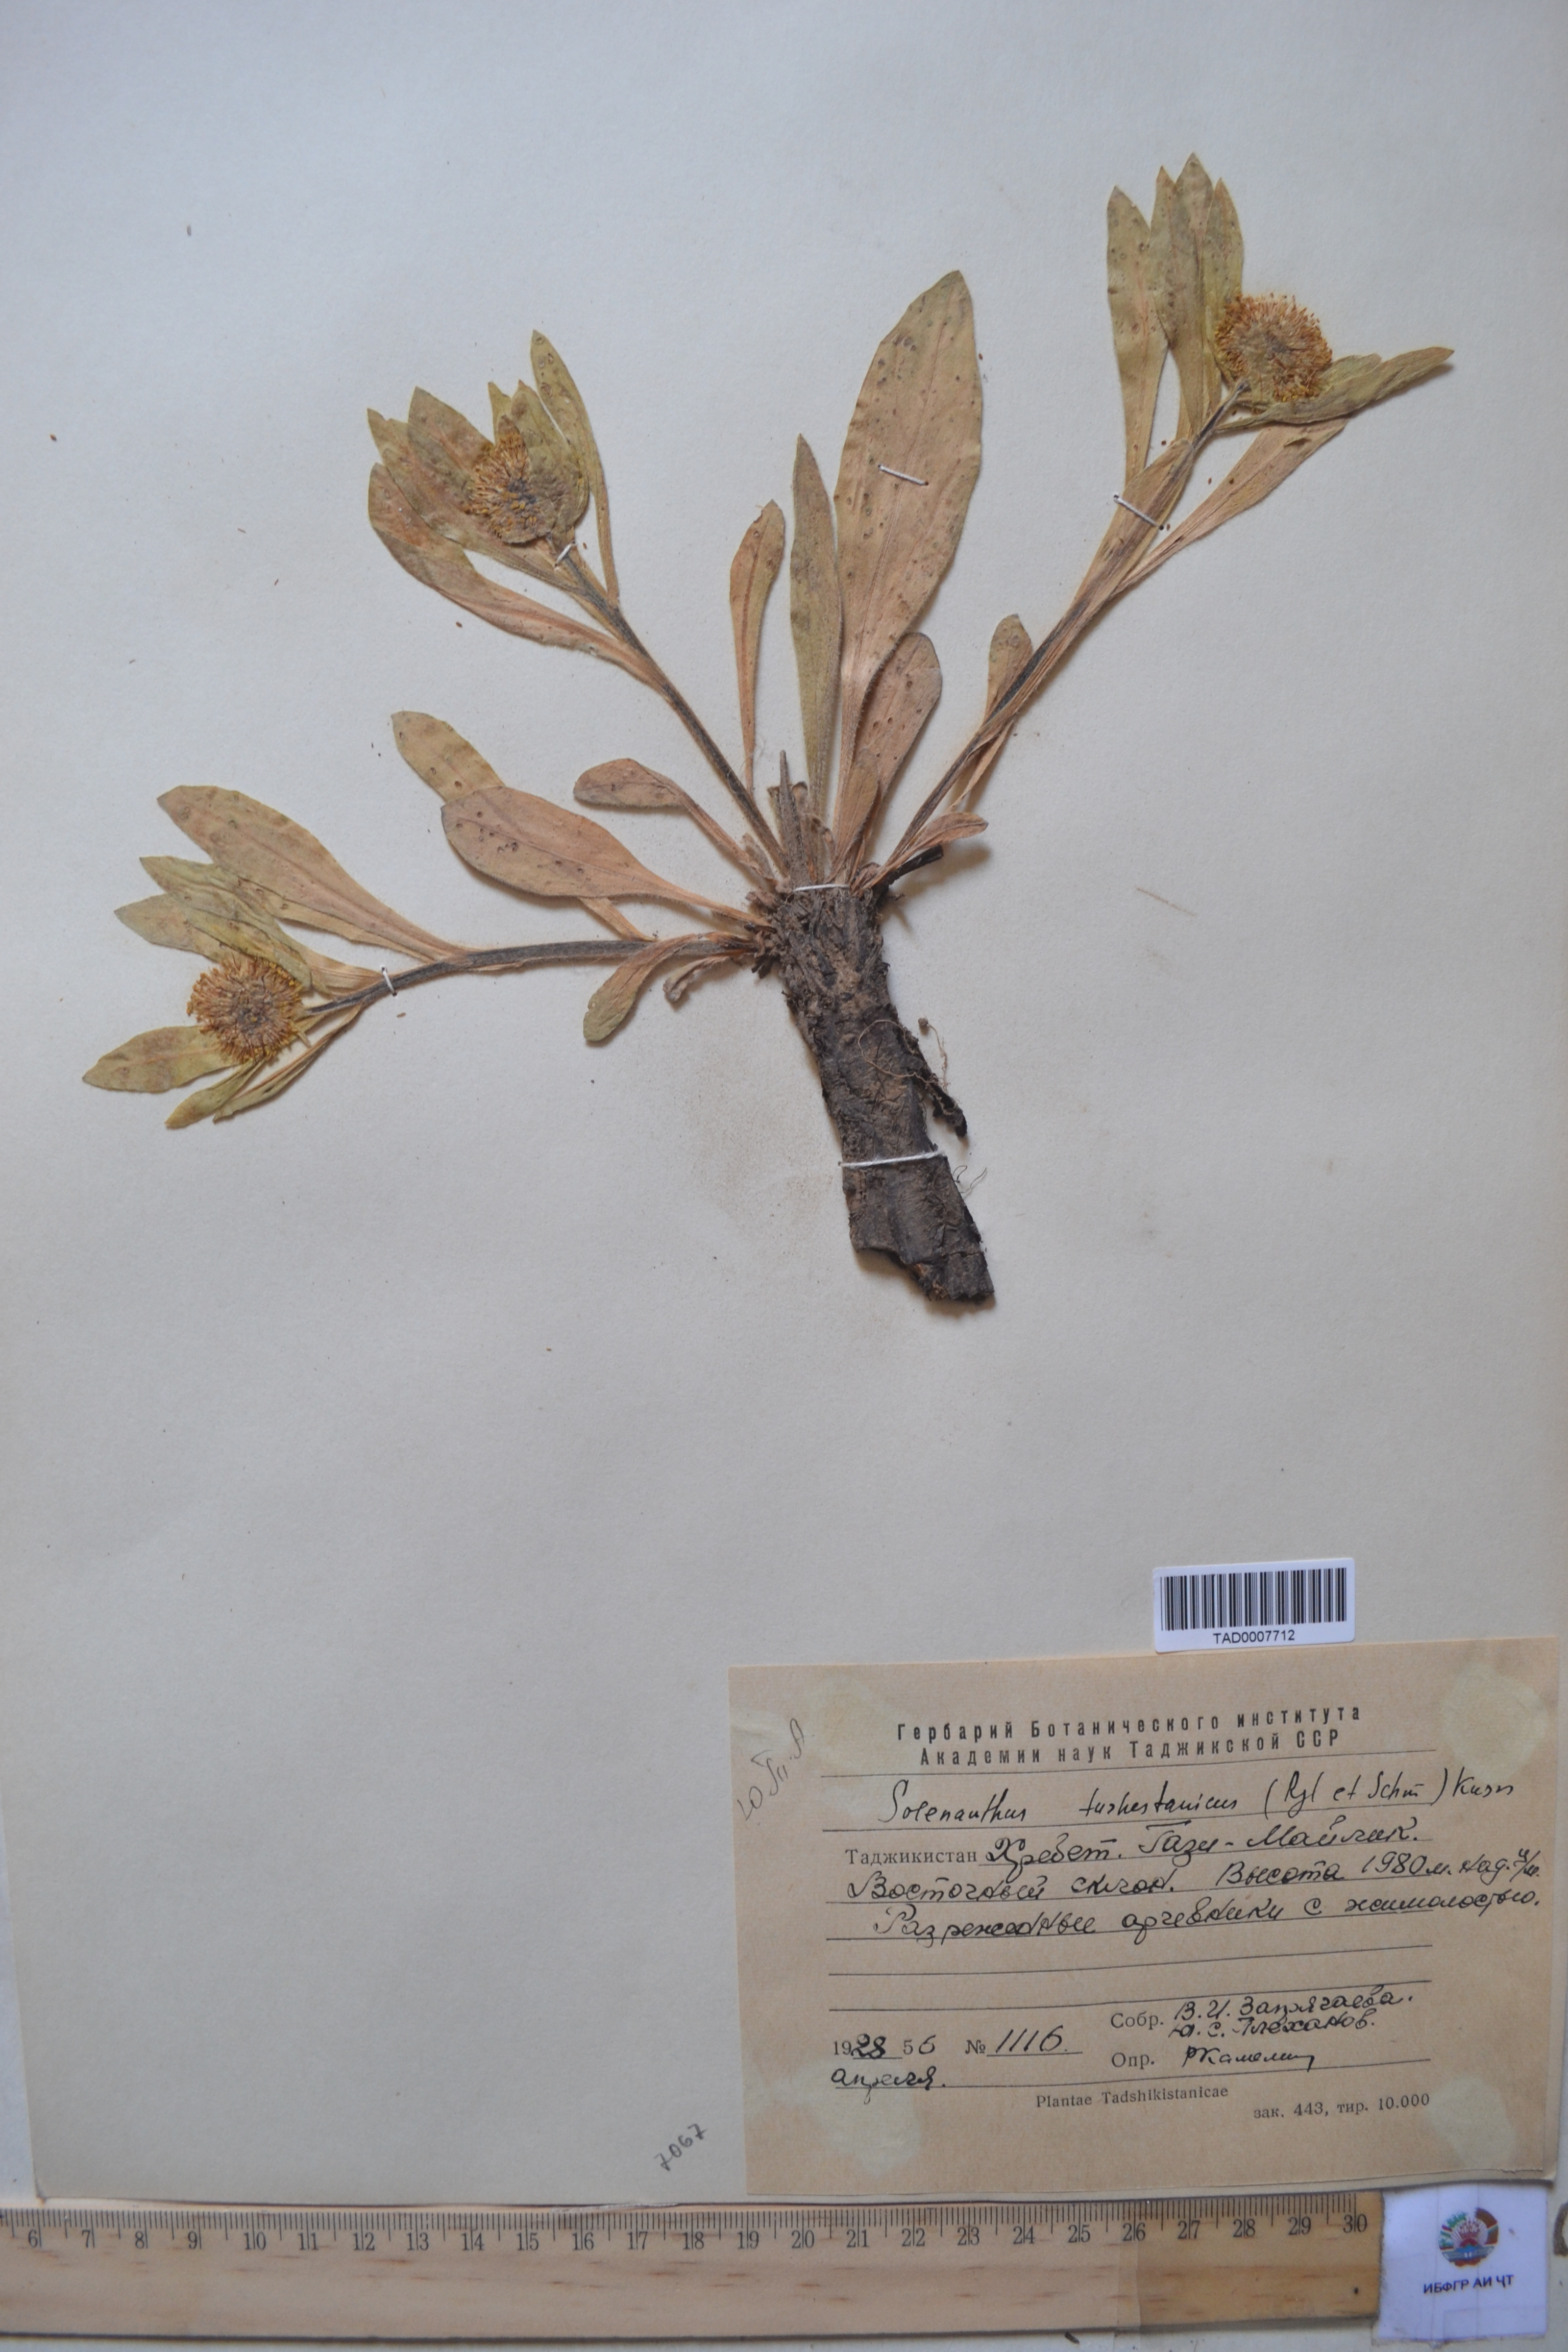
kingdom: Plantae
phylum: Tracheophyta
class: Magnoliopsida
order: Boraginales
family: Boraginaceae
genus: Solenanthus
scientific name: Solenanthus turkestanicus
